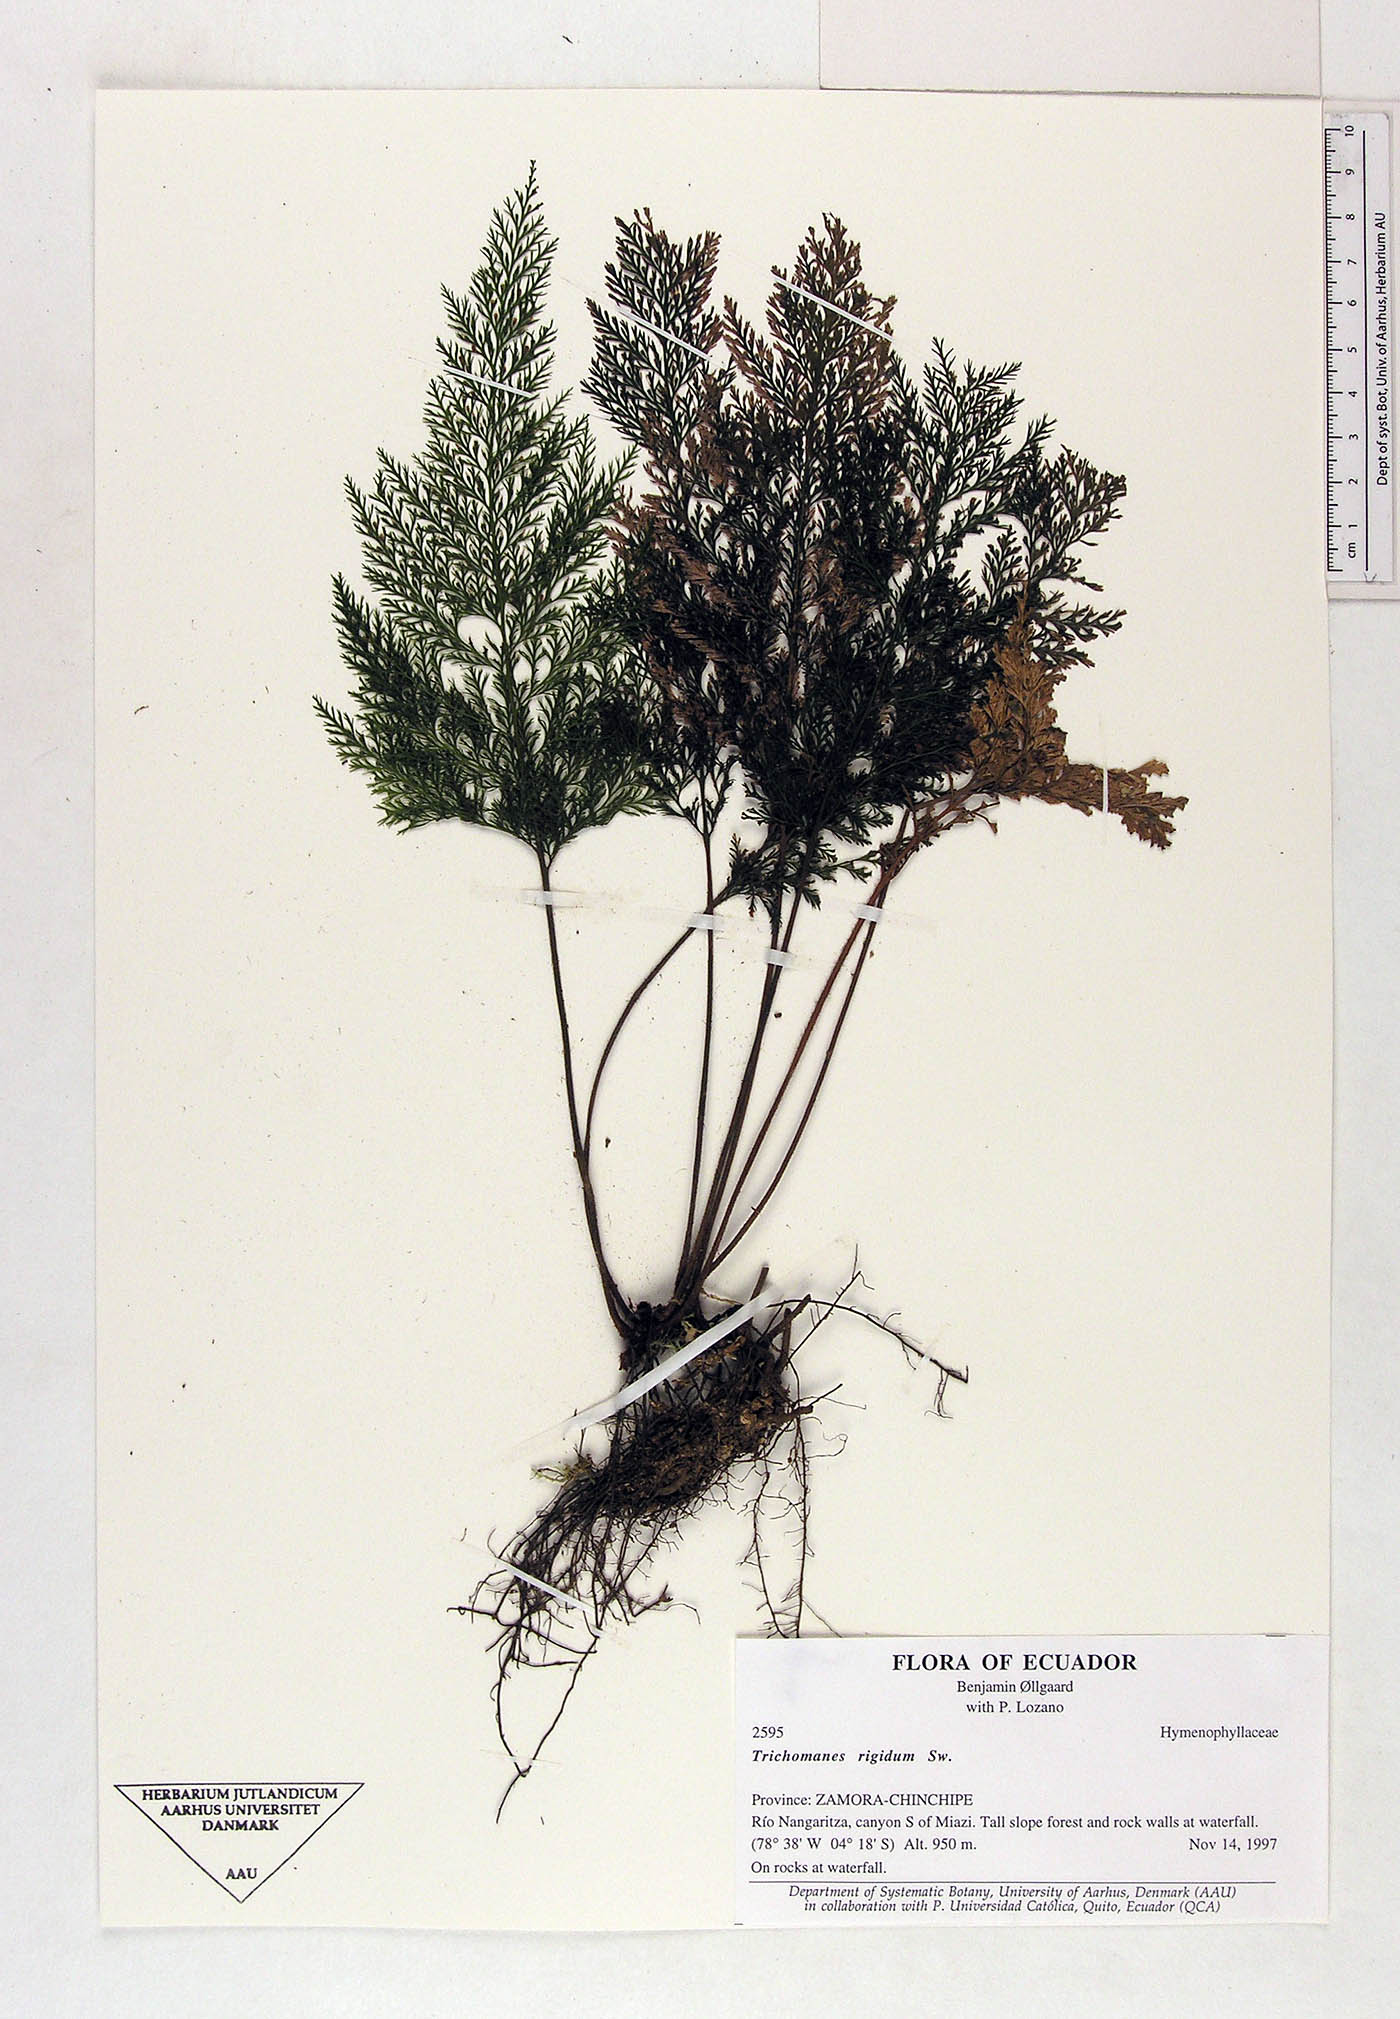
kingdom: Plantae
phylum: Tracheophyta
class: Polypodiopsida
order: Hymenophyllales
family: Hymenophyllaceae
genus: Trichomanes
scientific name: Trichomanes
